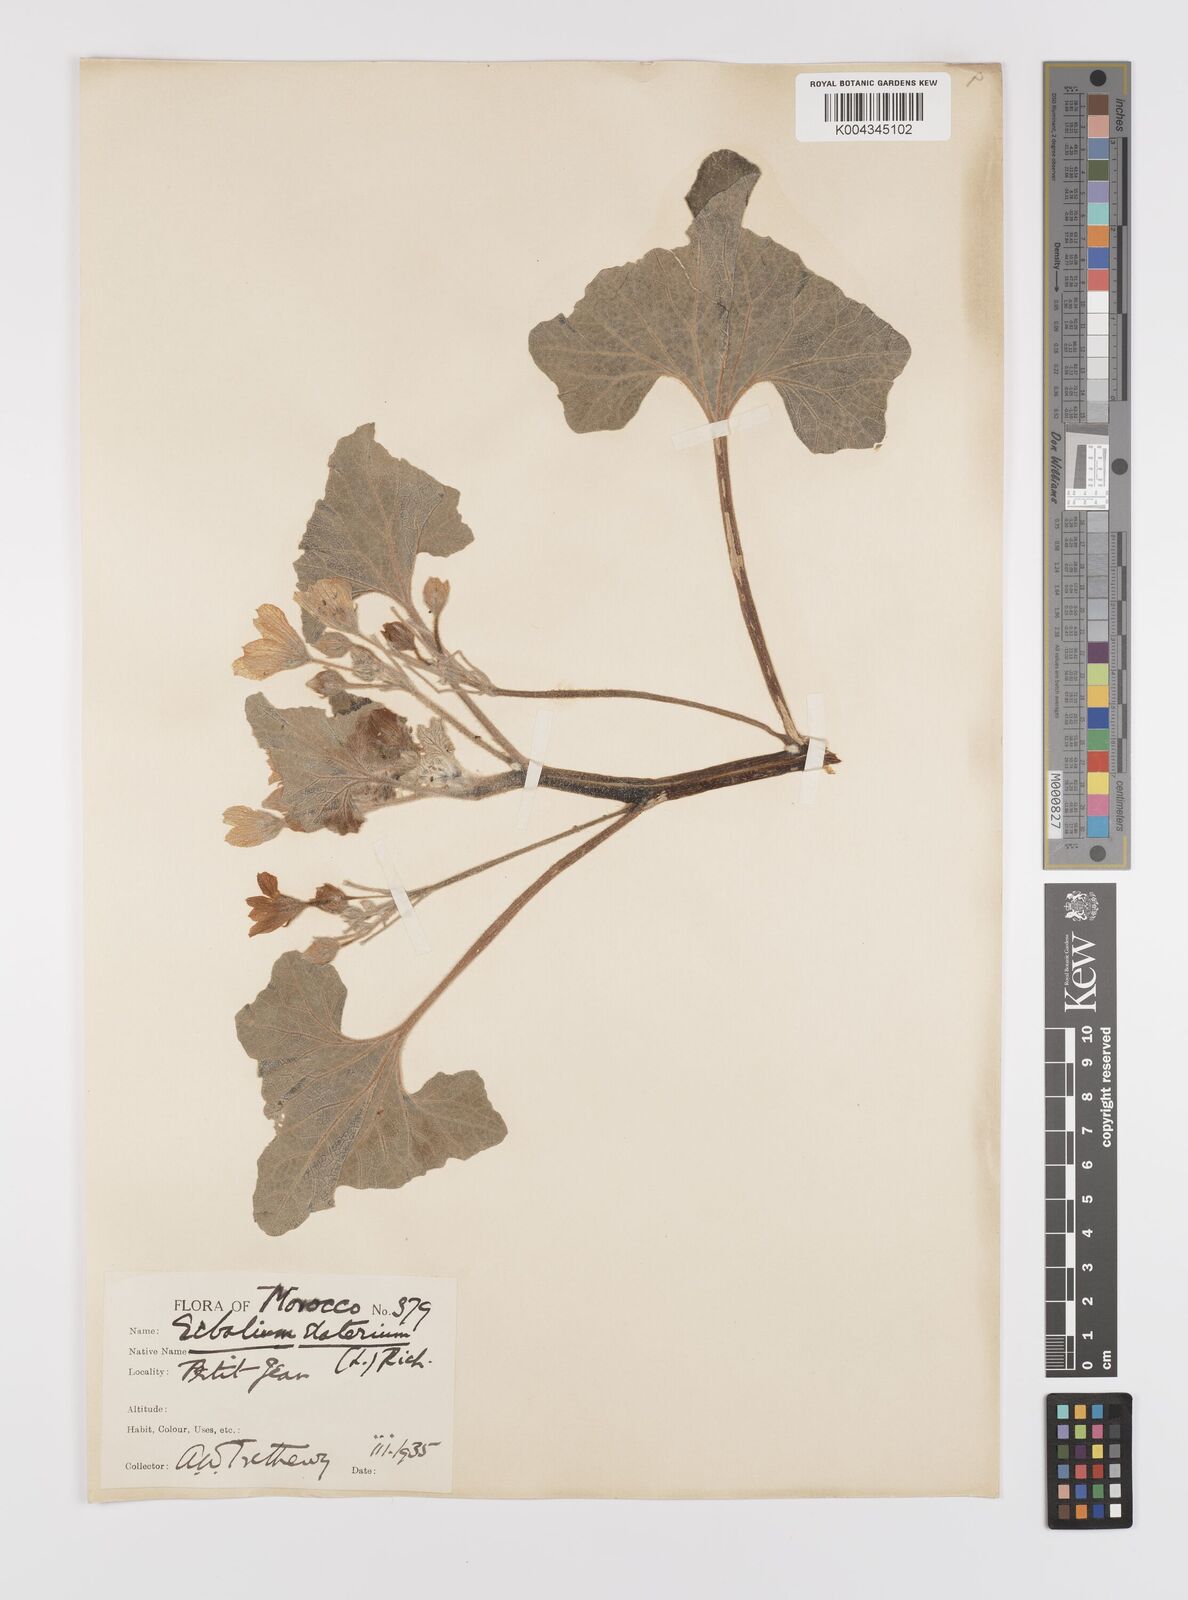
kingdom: Plantae
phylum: Tracheophyta
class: Magnoliopsida
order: Cucurbitales
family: Cucurbitaceae
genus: Ecballium
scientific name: Ecballium elaterium
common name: Squirting cucumber
